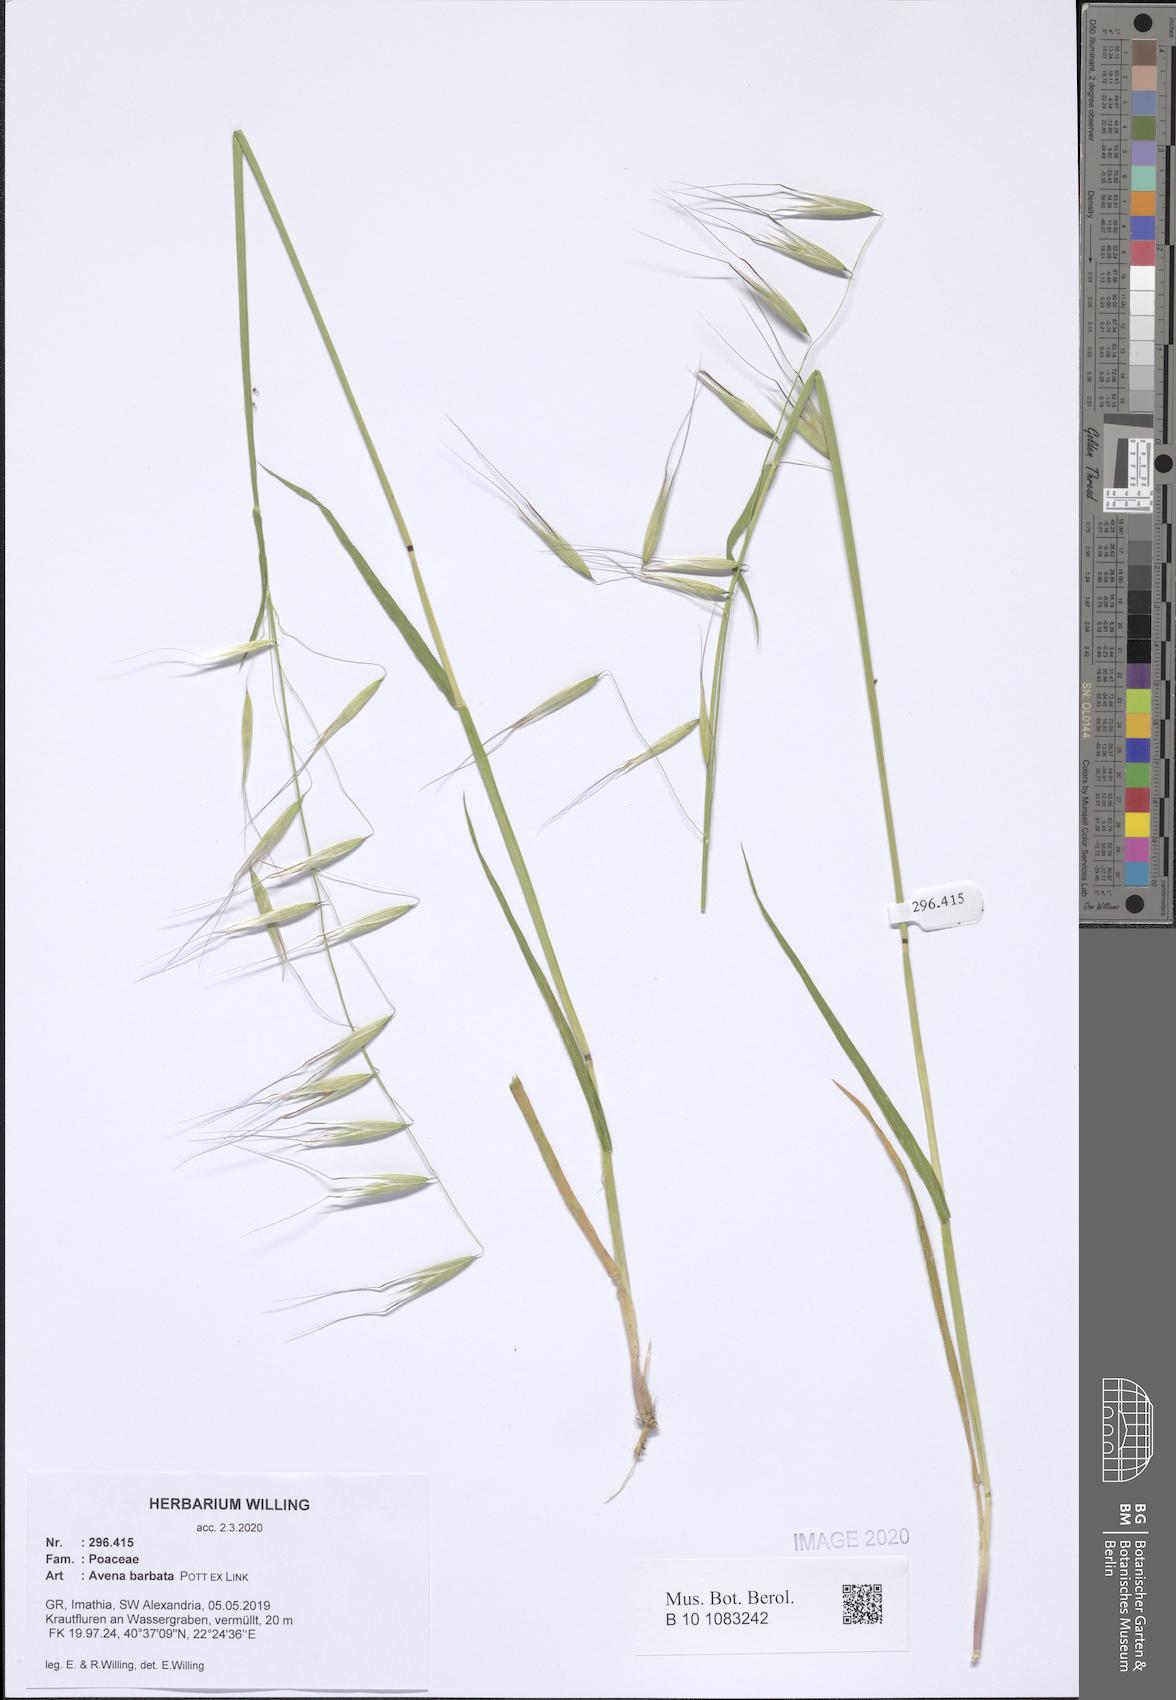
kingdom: Plantae
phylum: Tracheophyta
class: Liliopsida
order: Poales
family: Poaceae
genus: Avena
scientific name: Avena barbata
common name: Slender oat
